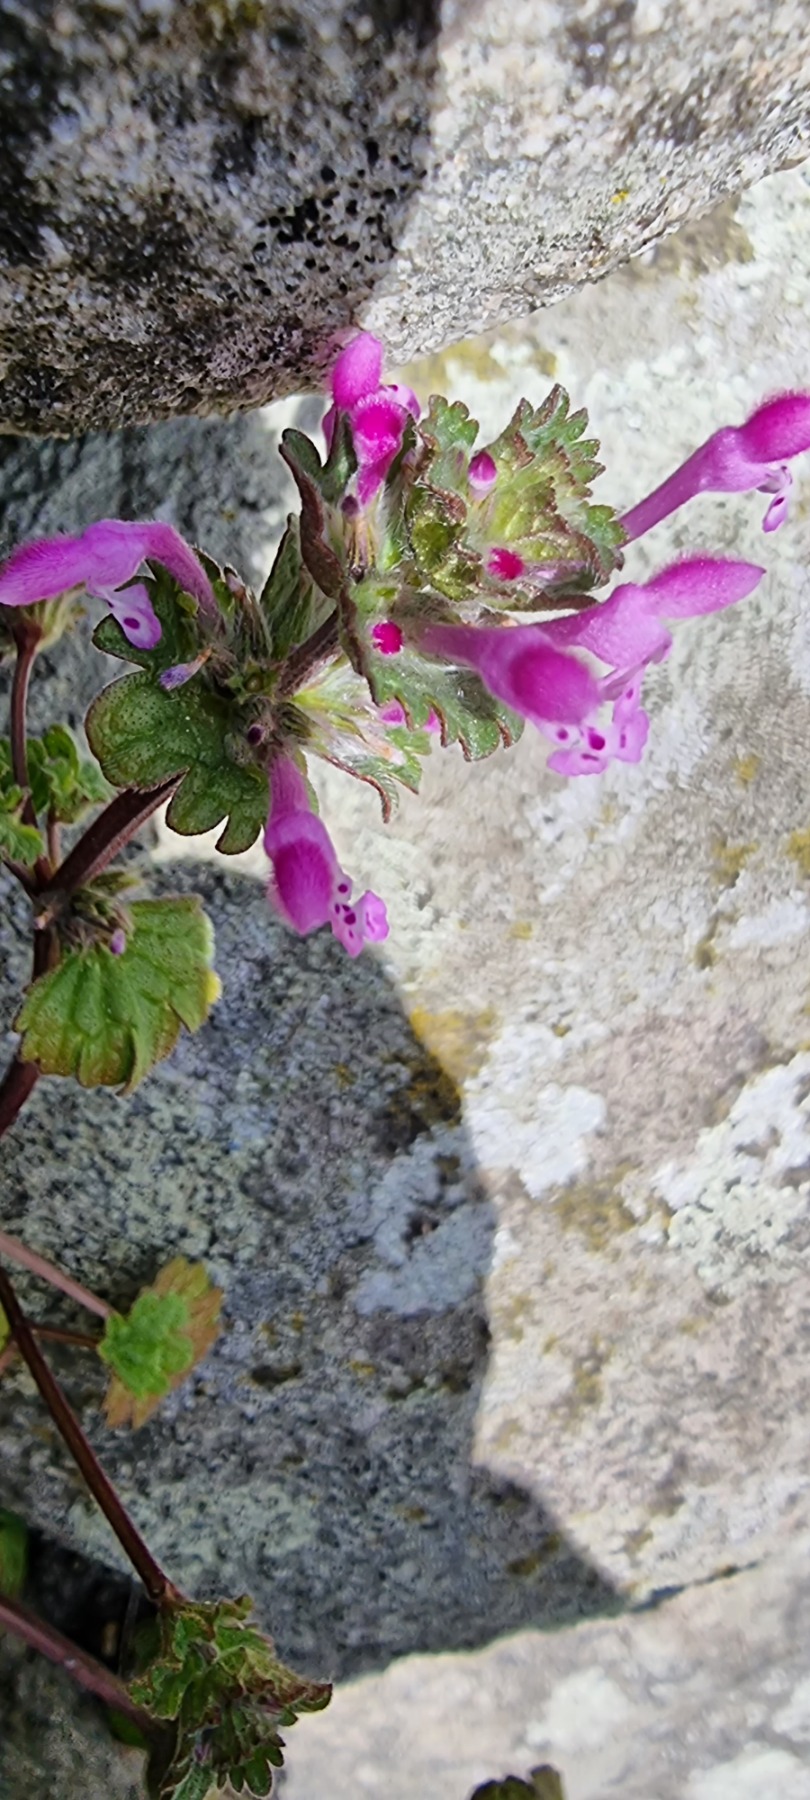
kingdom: Plantae
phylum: Tracheophyta
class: Magnoliopsida
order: Lamiales
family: Lamiaceae
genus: Lamium
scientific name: Lamium amplexicaule
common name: Liden tvetand
